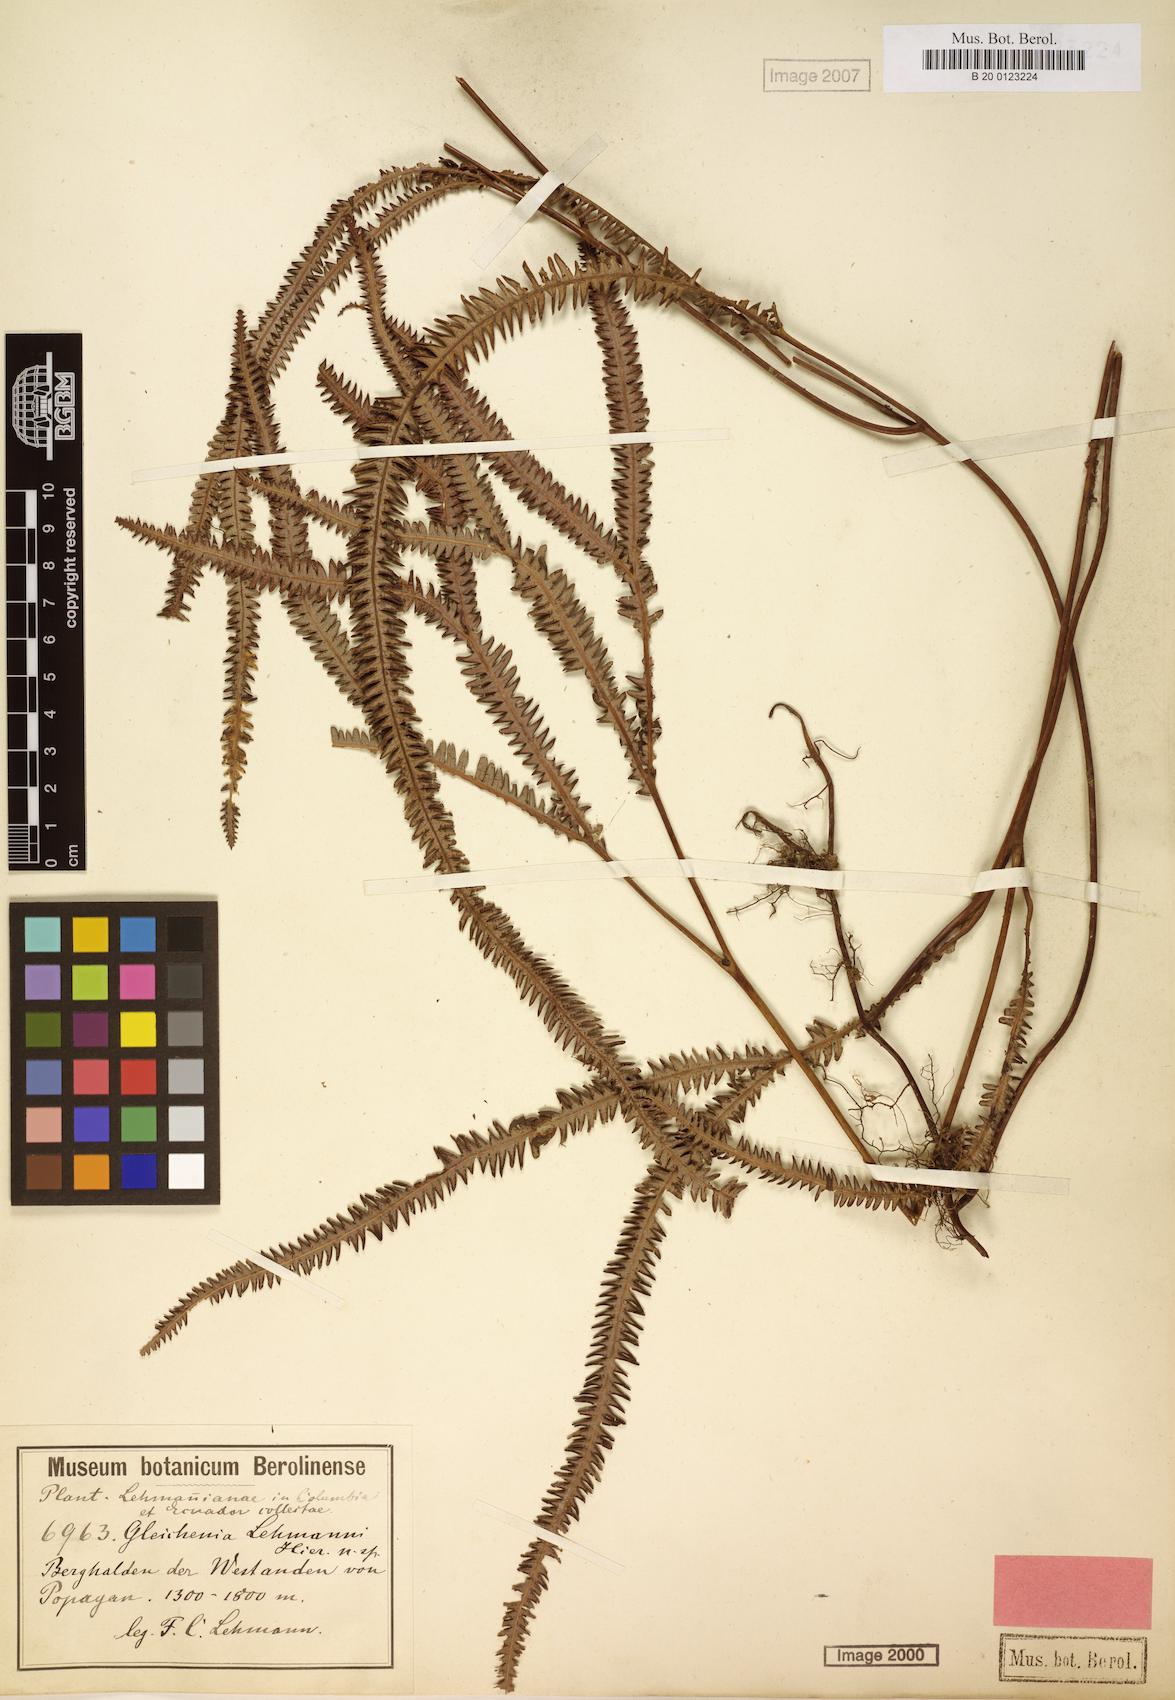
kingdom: Plantae
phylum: Tracheophyta
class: Polypodiopsida
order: Gleicheniales
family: Gleicheniaceae
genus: Sticherus
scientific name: Sticherus hypoleucus
